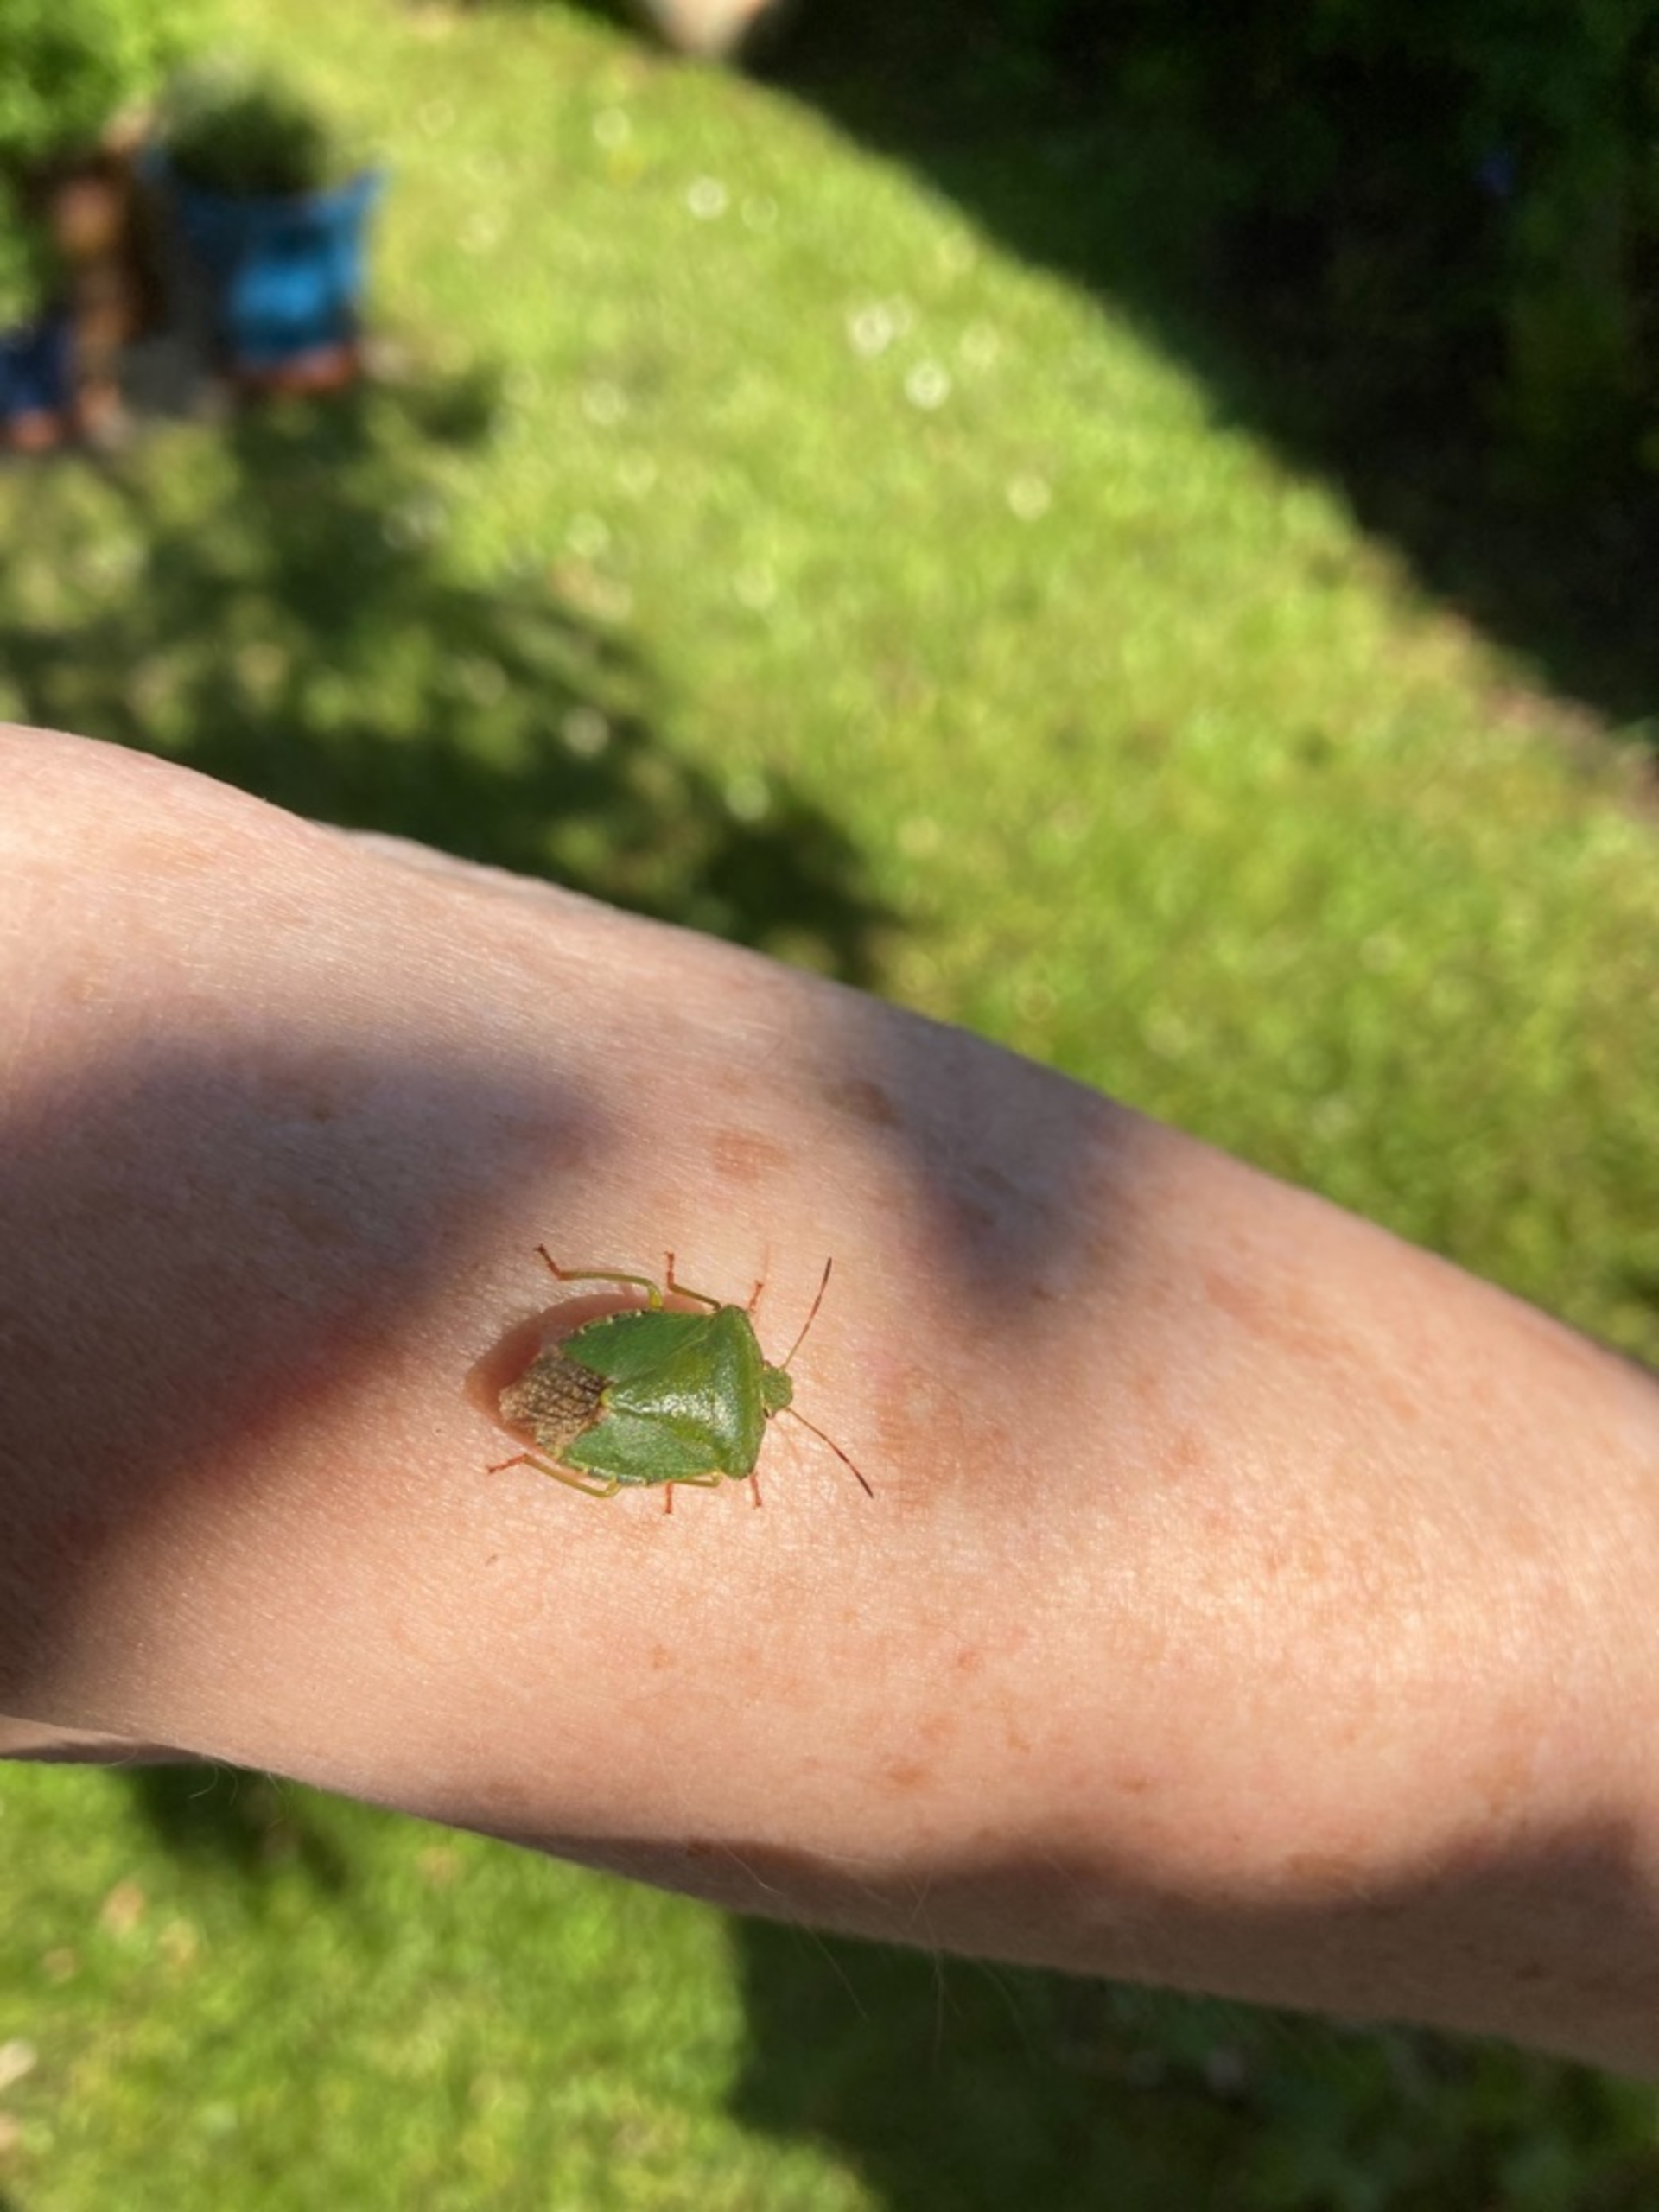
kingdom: Animalia
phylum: Arthropoda
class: Insecta
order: Hemiptera
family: Pentatomidae
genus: Palomena
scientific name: Palomena prasina
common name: Grøn bredtæge
